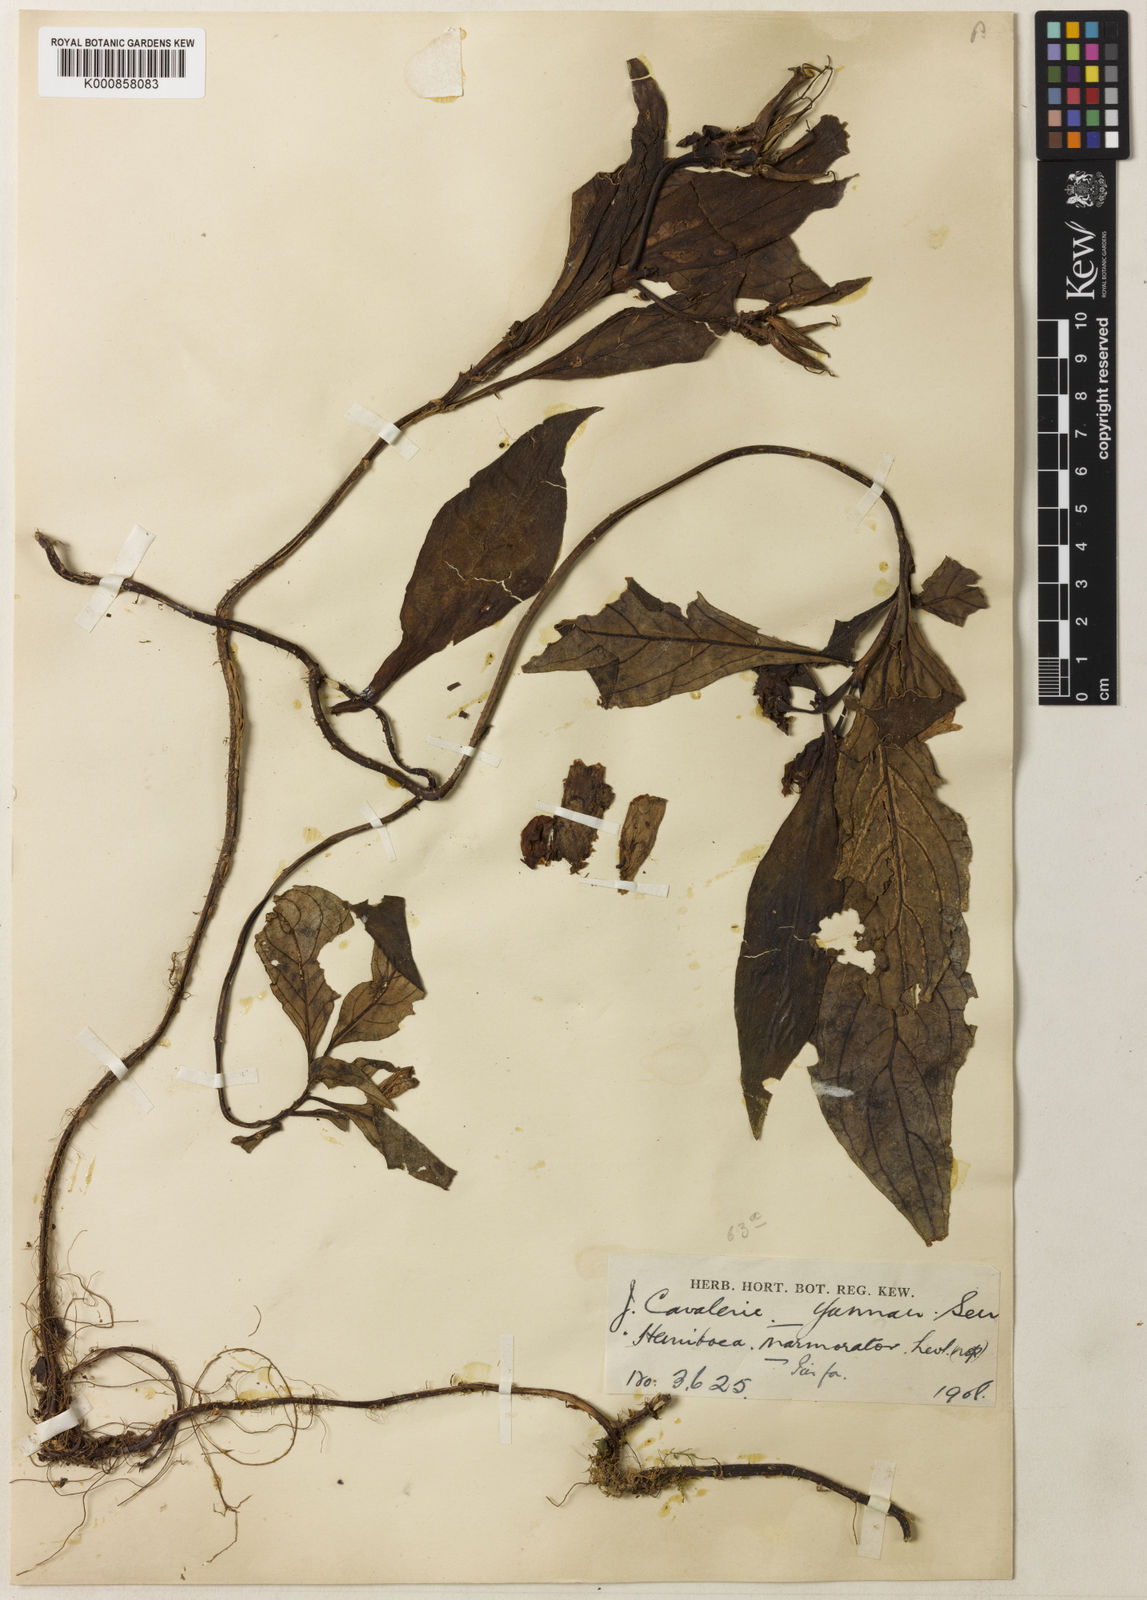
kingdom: Plantae
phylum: Tracheophyta
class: Magnoliopsida
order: Lamiales
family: Gesneriaceae
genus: Hemiboea
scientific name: Hemiboea subcapitata
